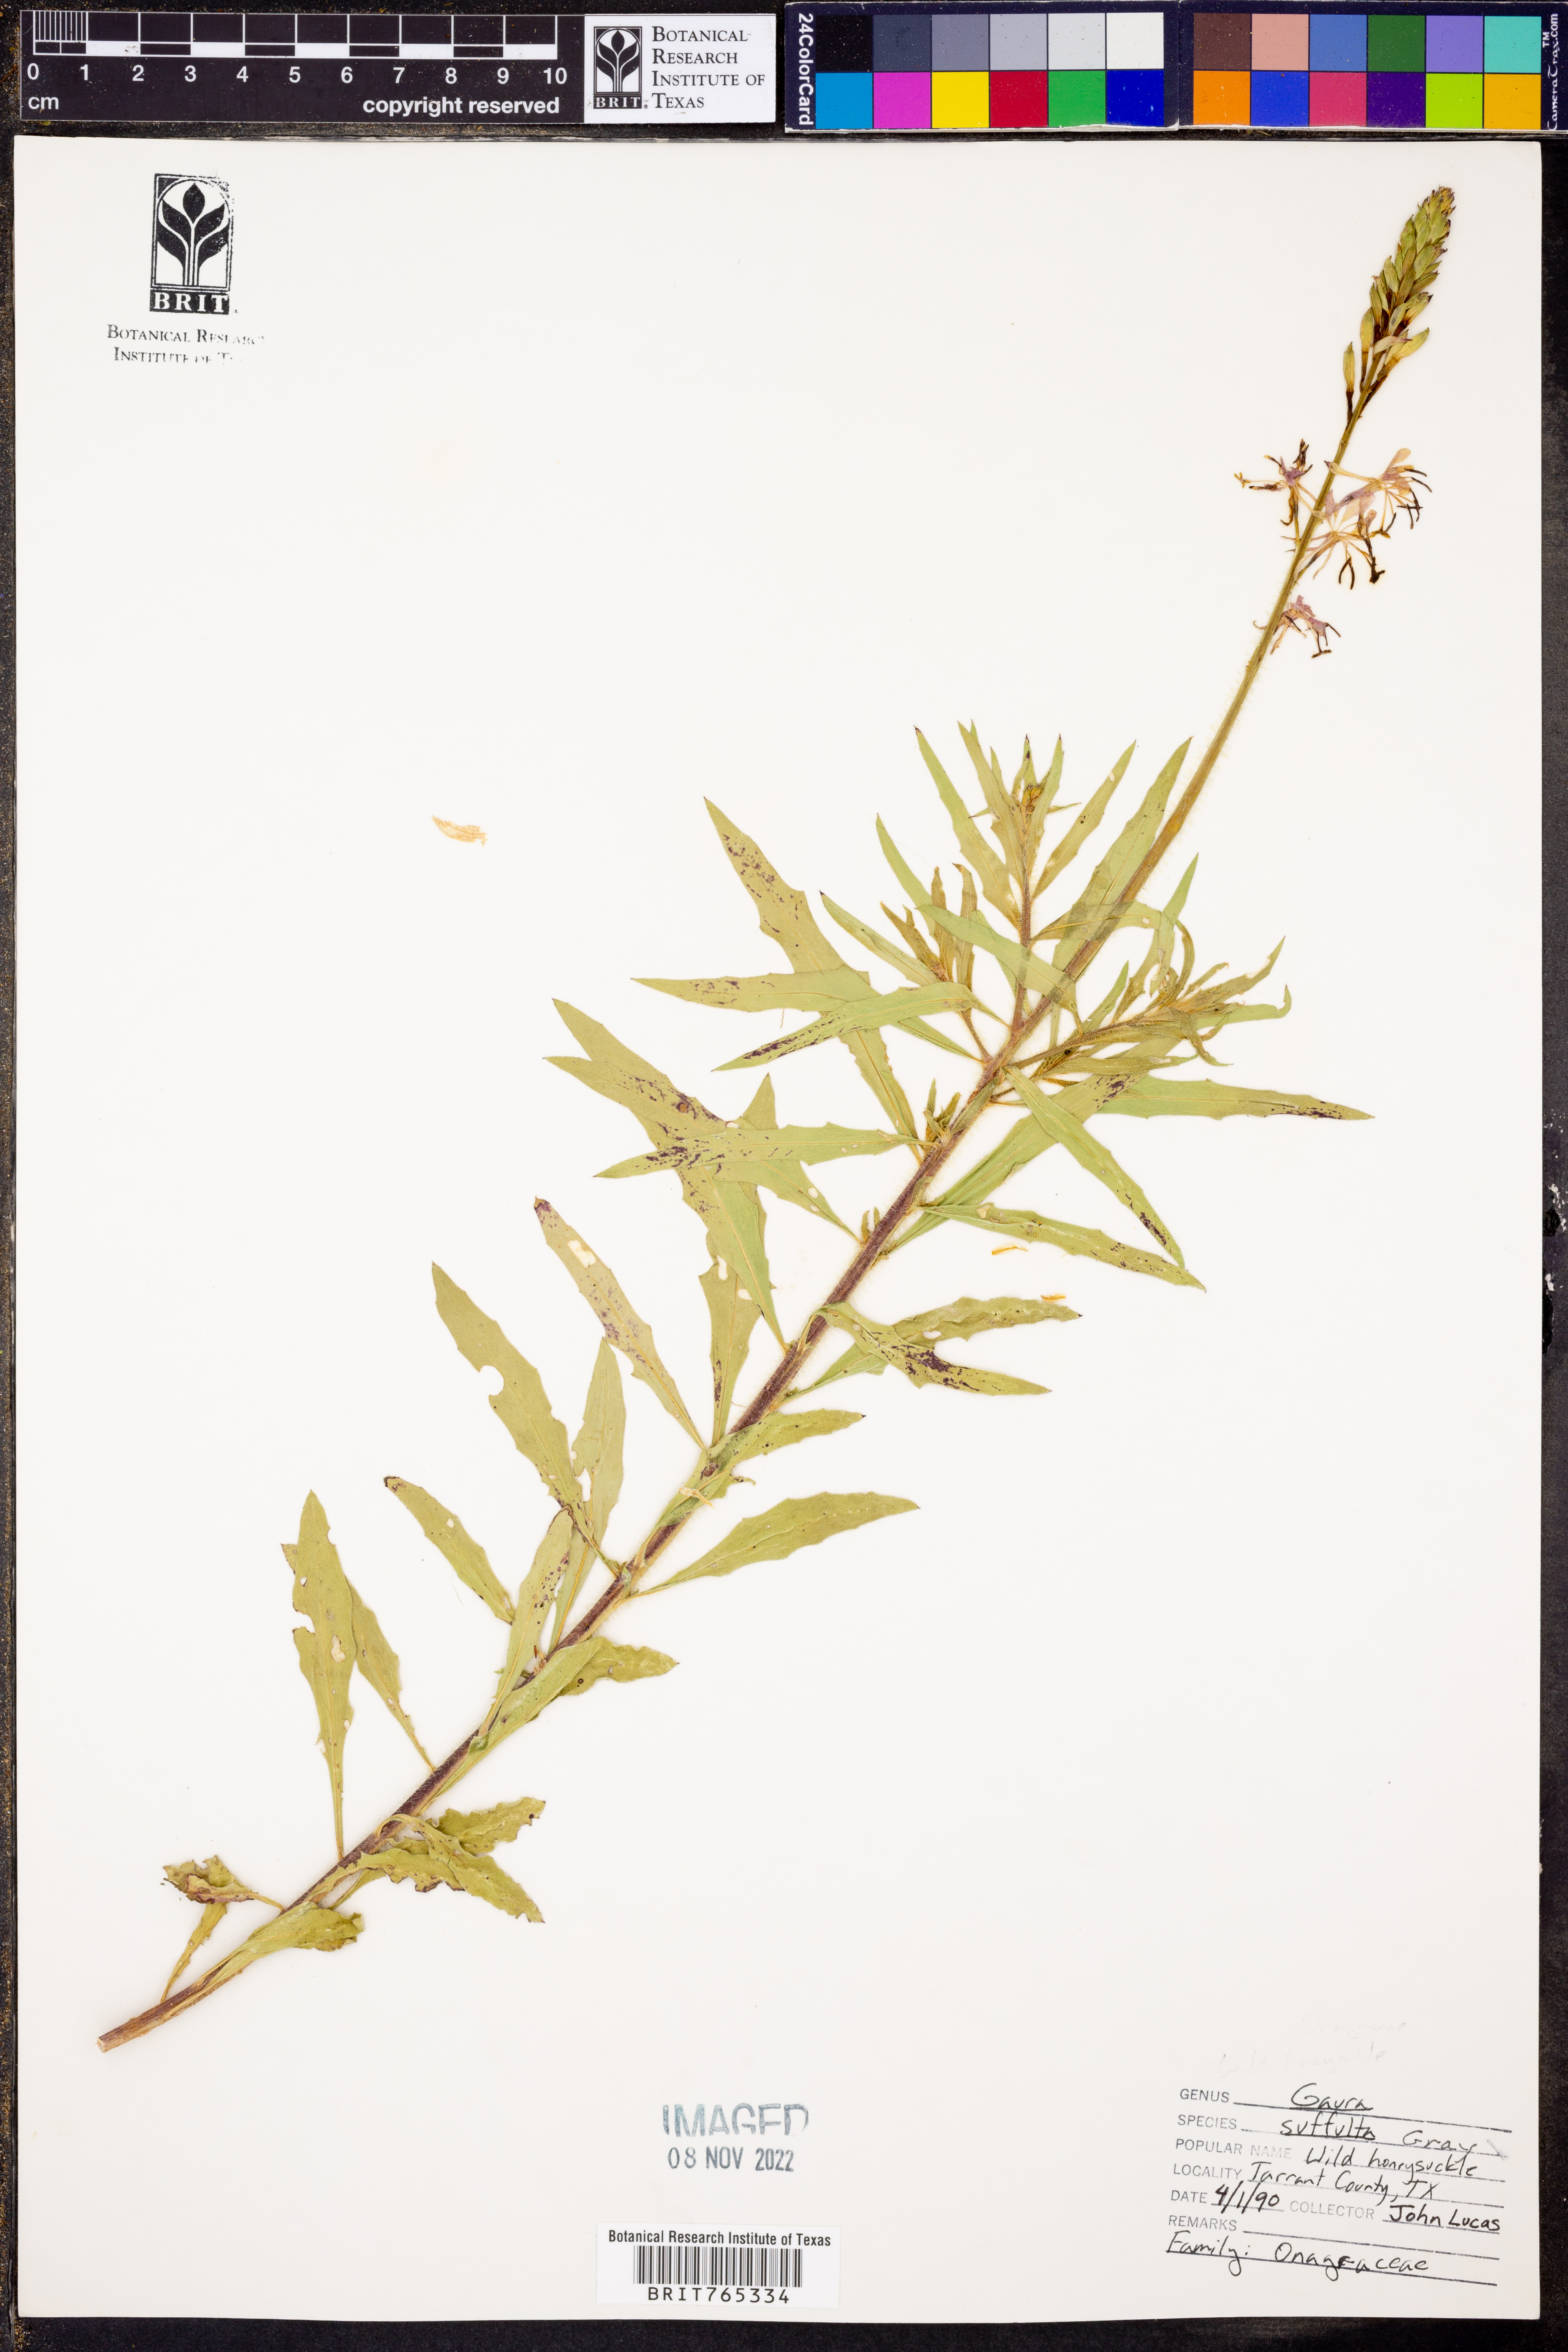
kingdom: Plantae
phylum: Tracheophyta
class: Magnoliopsida
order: Myrtales
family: Onagraceae
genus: Oenothera
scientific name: Oenothera Gaura suffulta
